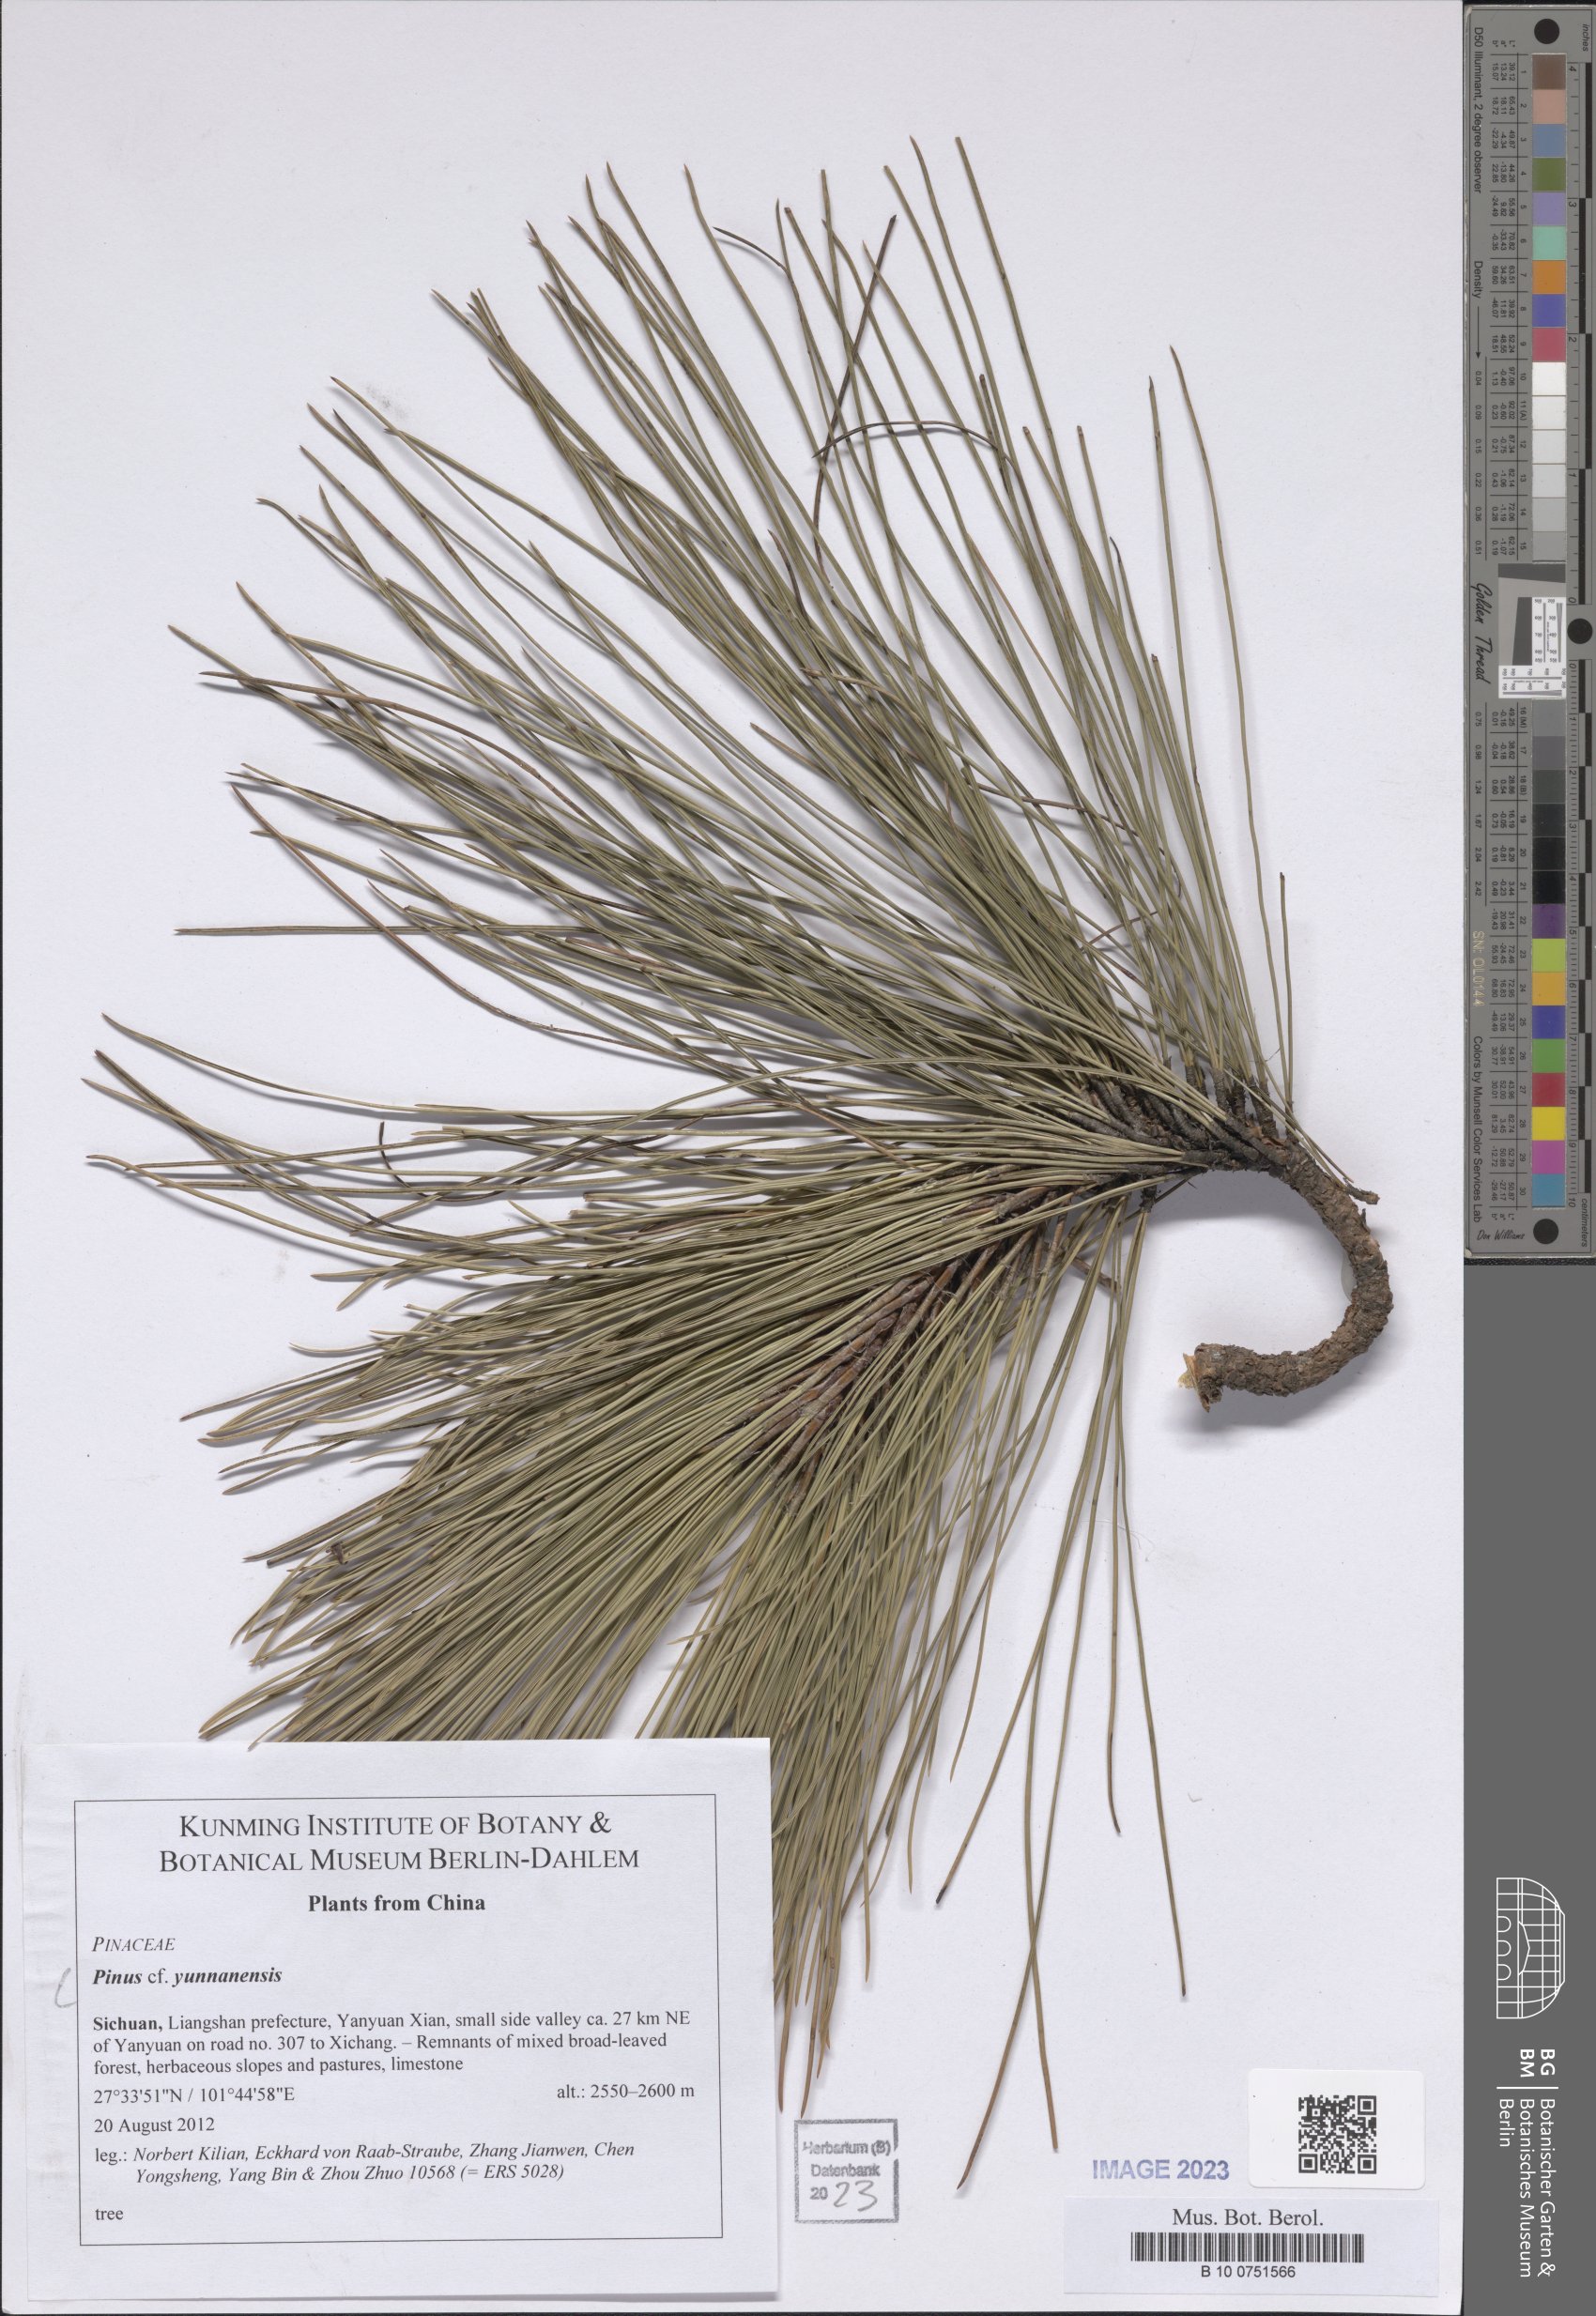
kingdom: Plantae
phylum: Tracheophyta
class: Pinopsida
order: Pinales
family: Pinaceae
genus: Pinus
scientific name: Pinus yunnanensis
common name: Yunnan pine
